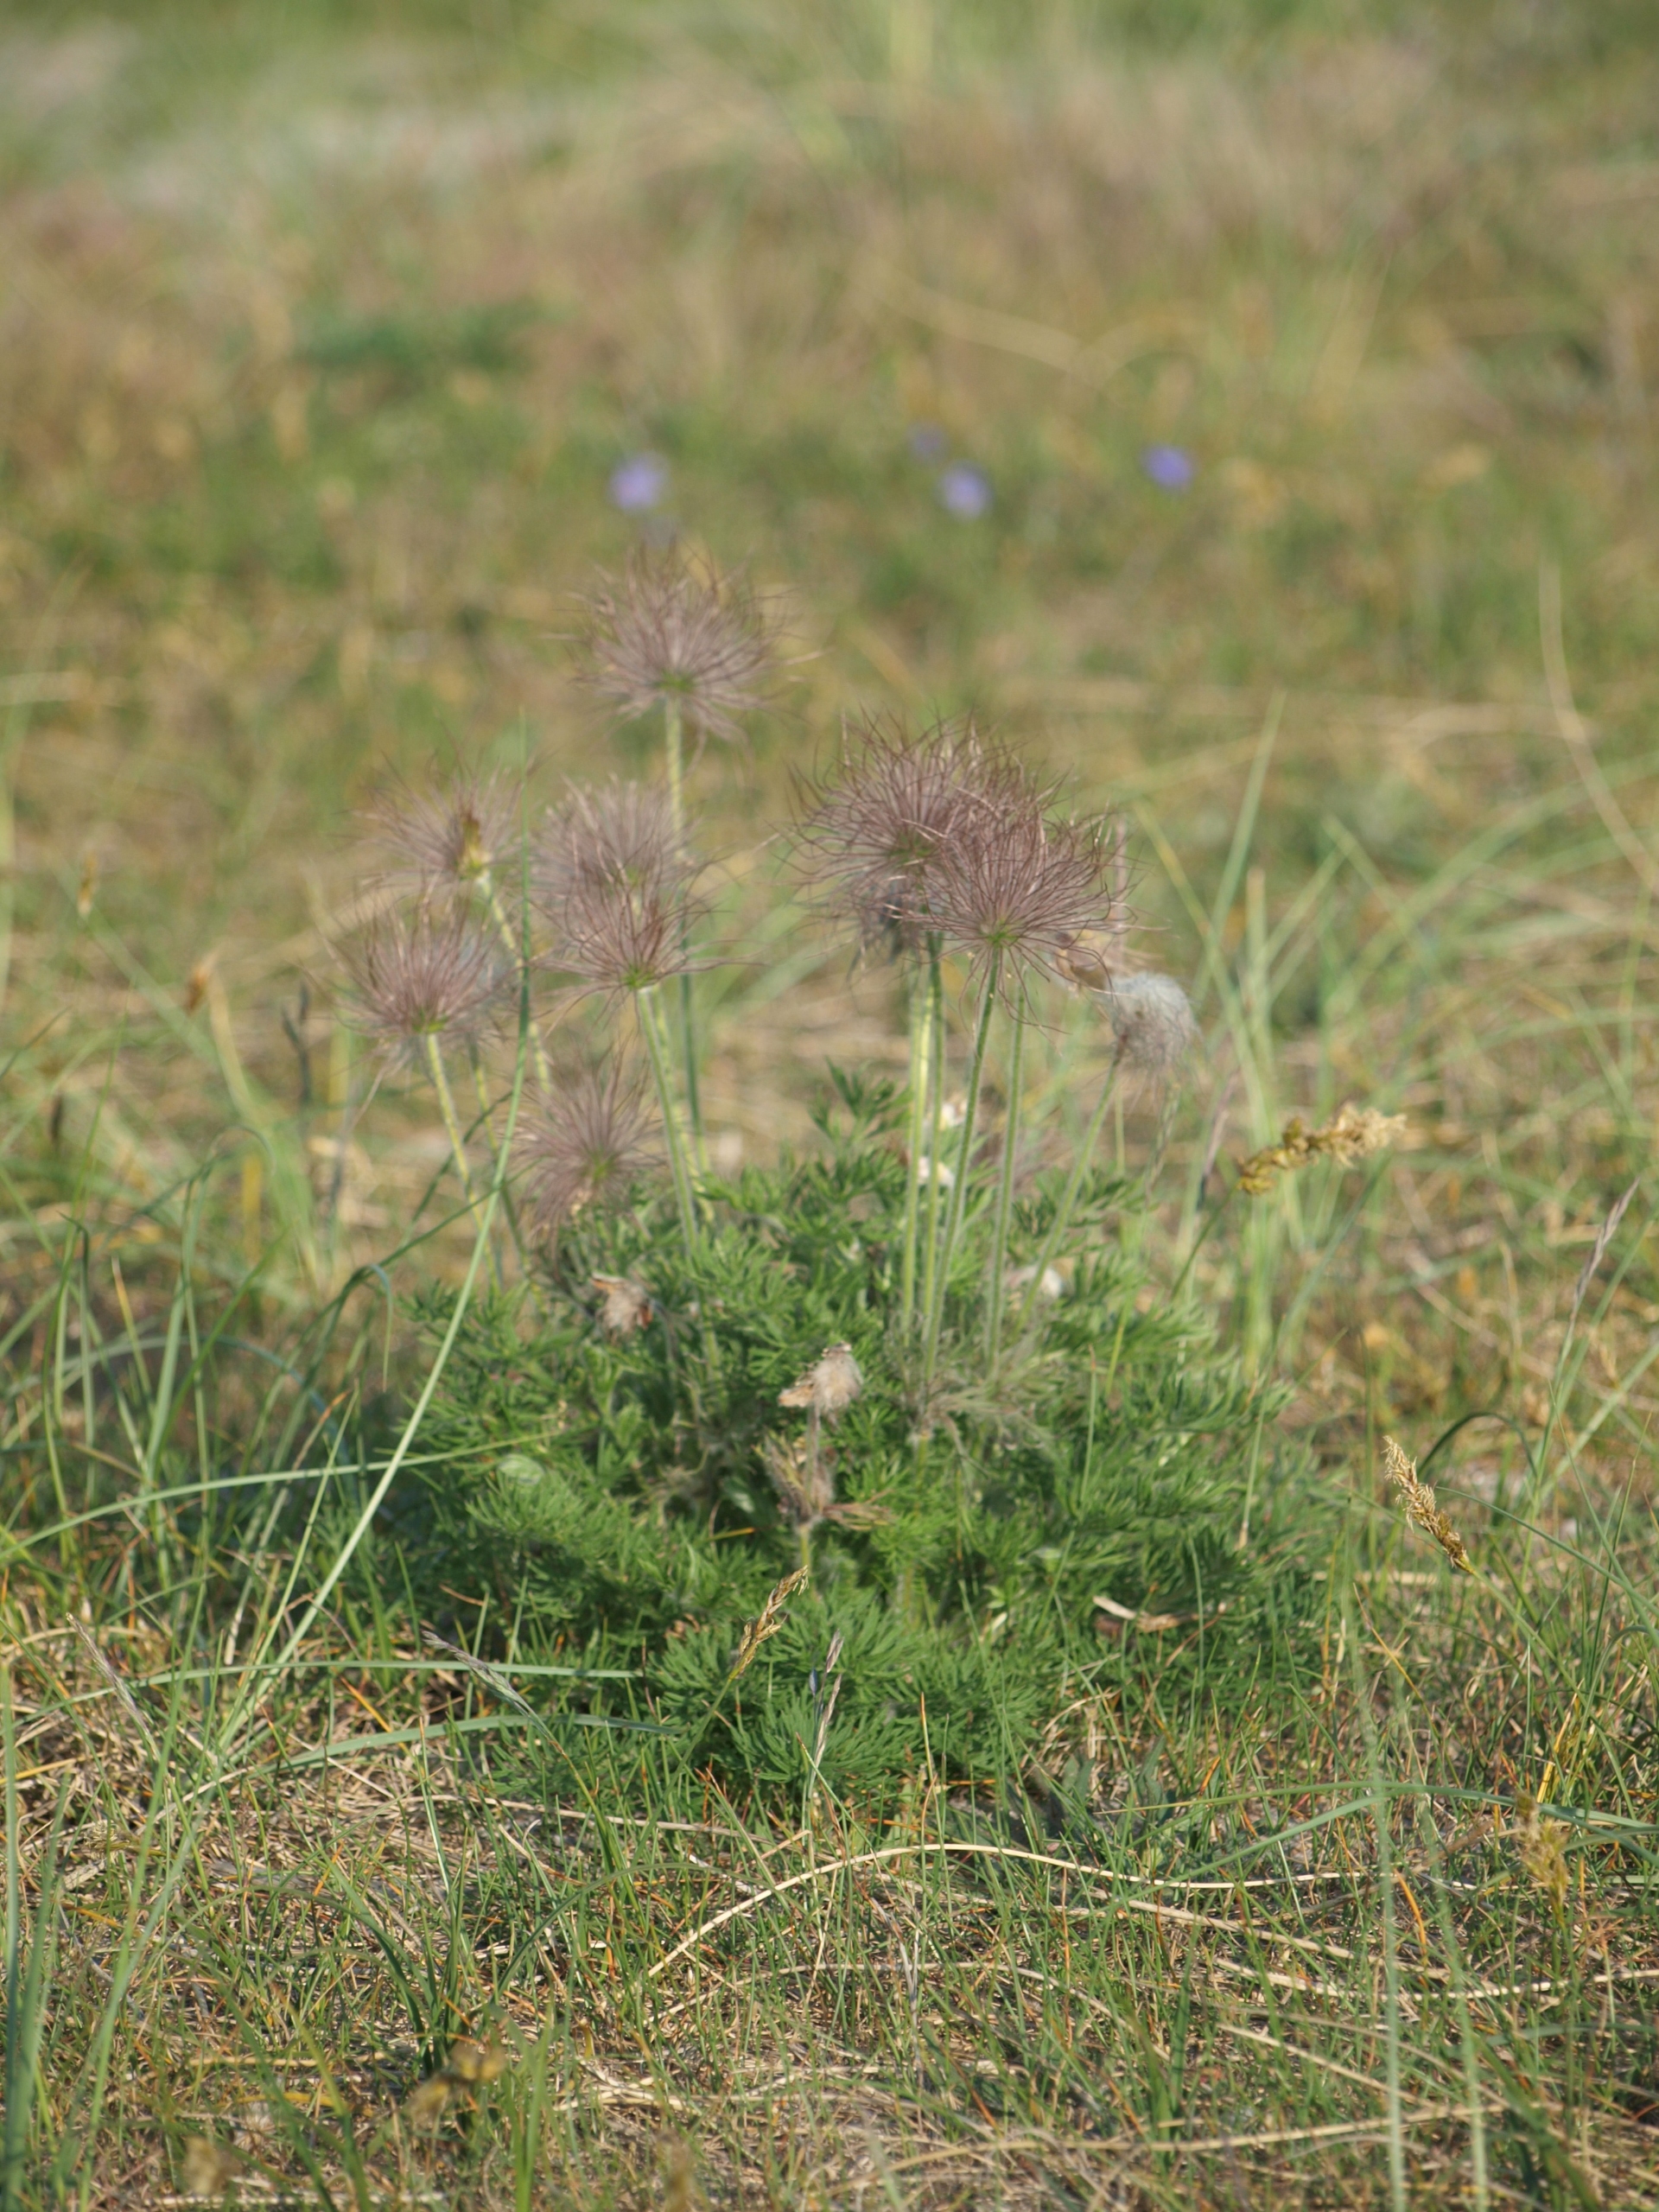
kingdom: Plantae
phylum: Tracheophyta
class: Magnoliopsida
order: Ranunculales
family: Ranunculaceae
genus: Pulsatilla
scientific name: Pulsatilla pratensis
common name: Nikkende kobjælde
